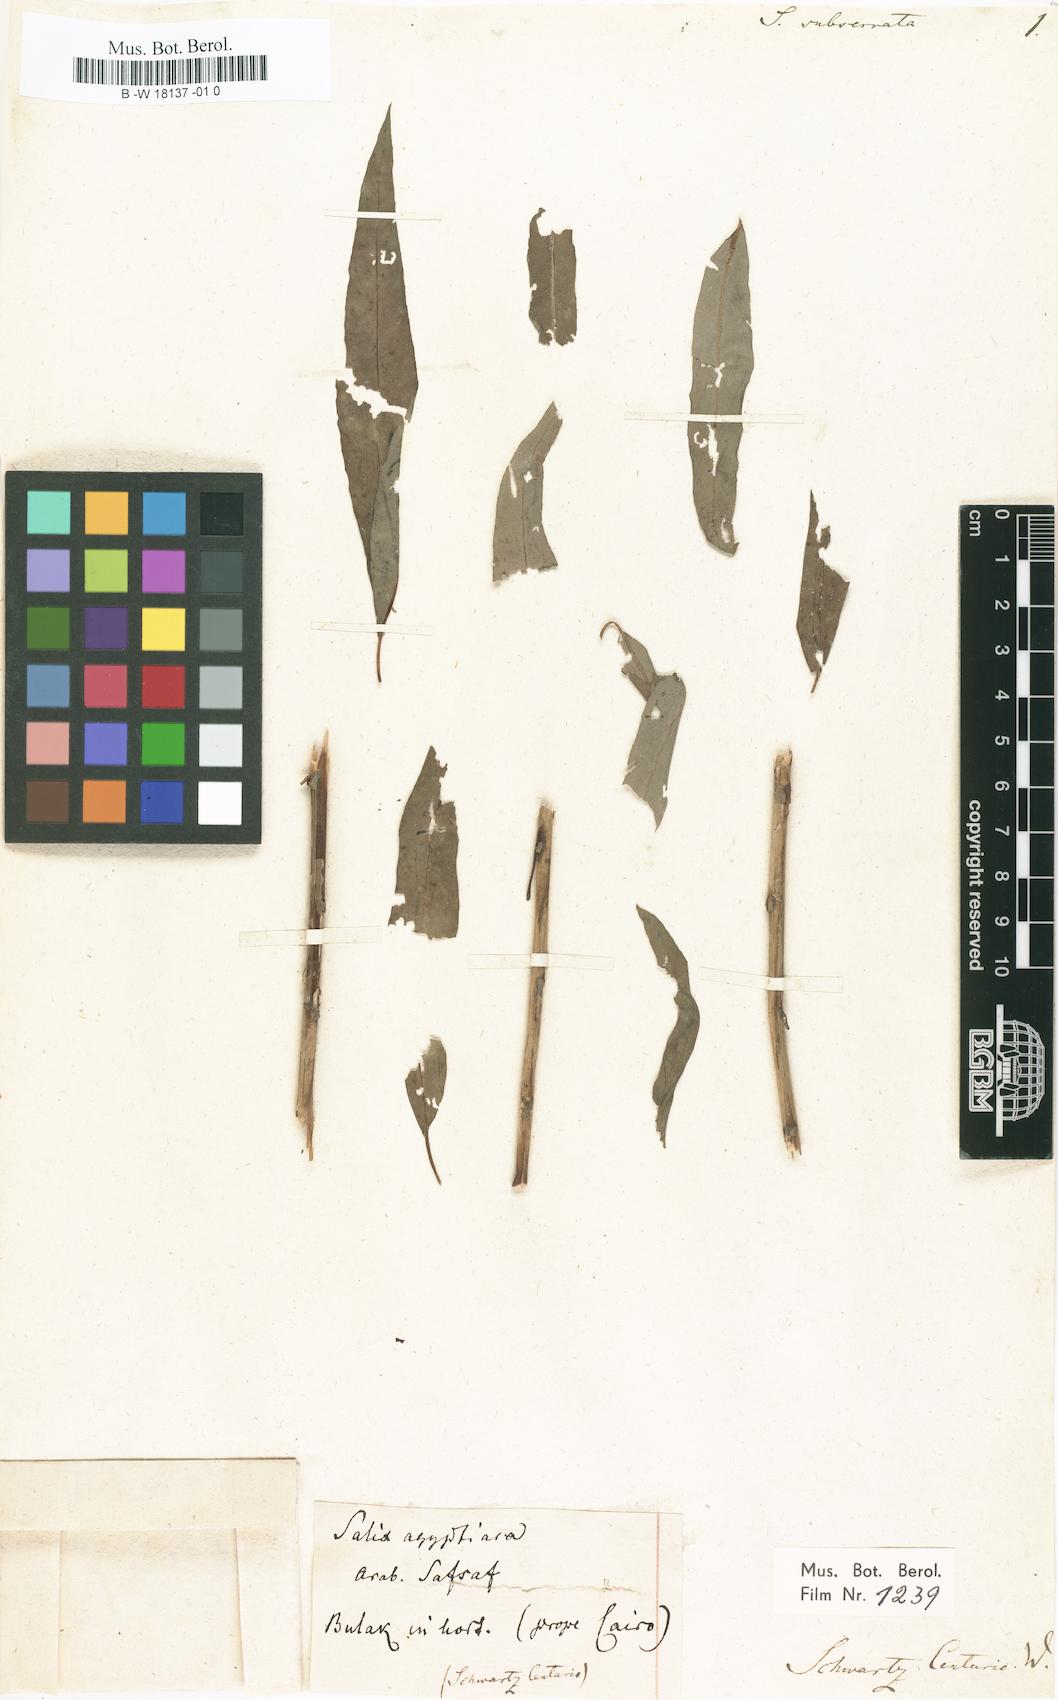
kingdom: Plantae
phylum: Tracheophyta
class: Magnoliopsida
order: Malpighiales
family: Salicaceae
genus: Salix
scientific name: Salix mucronata
